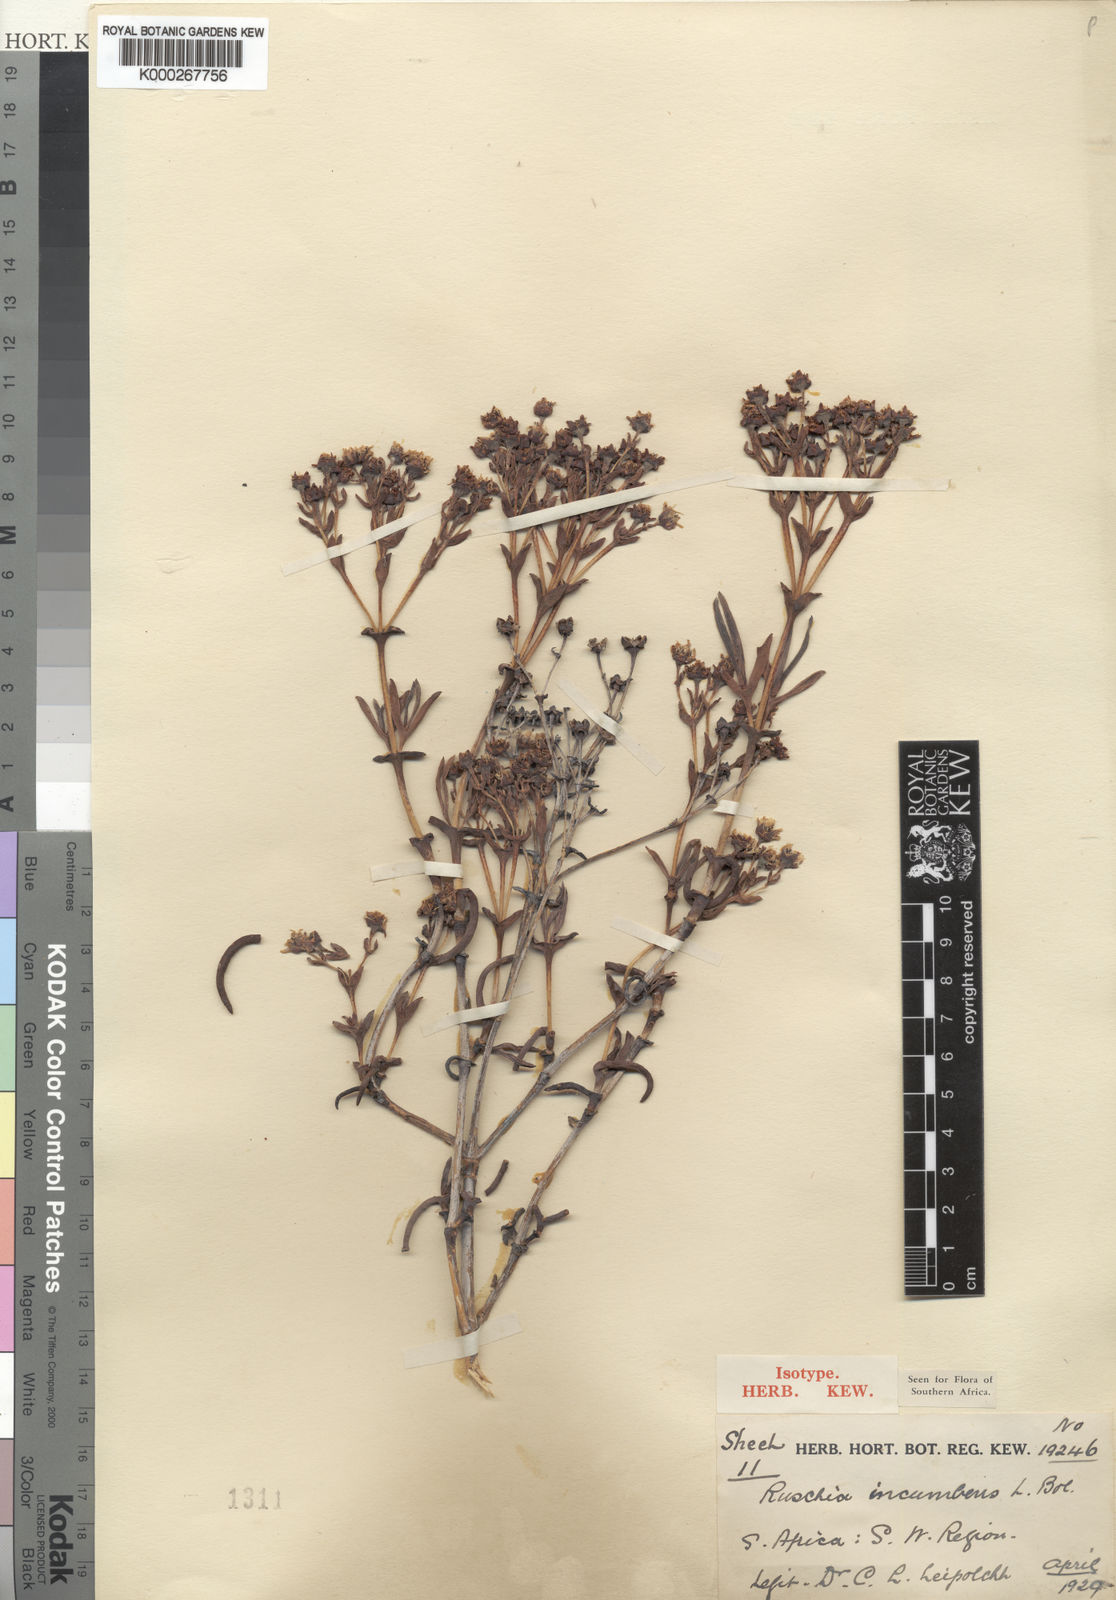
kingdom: Plantae
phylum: Tracheophyta
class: Magnoliopsida
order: Caryophyllales
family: Aizoaceae
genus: Phiambolia
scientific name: Phiambolia incumbens
